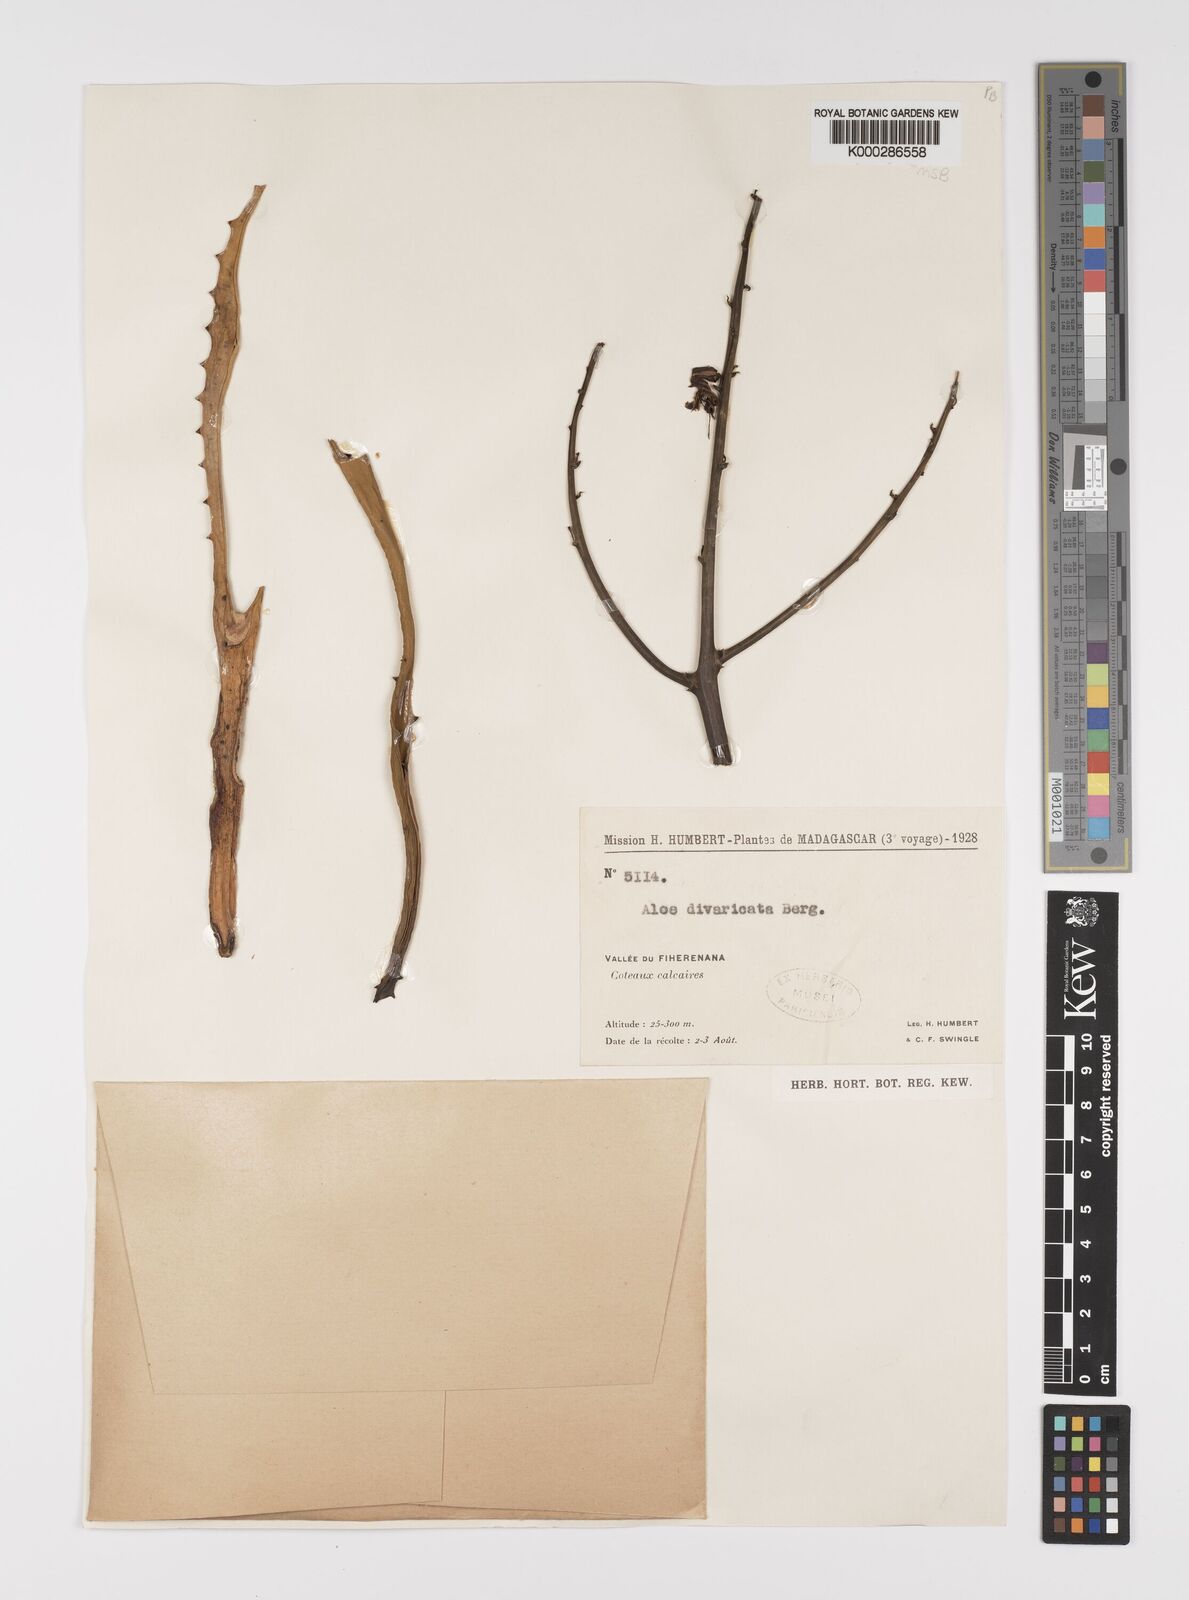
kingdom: Plantae
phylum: Tracheophyta
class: Liliopsida
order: Asparagales
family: Asphodelaceae
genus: Aloe
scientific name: Aloe divaricata
